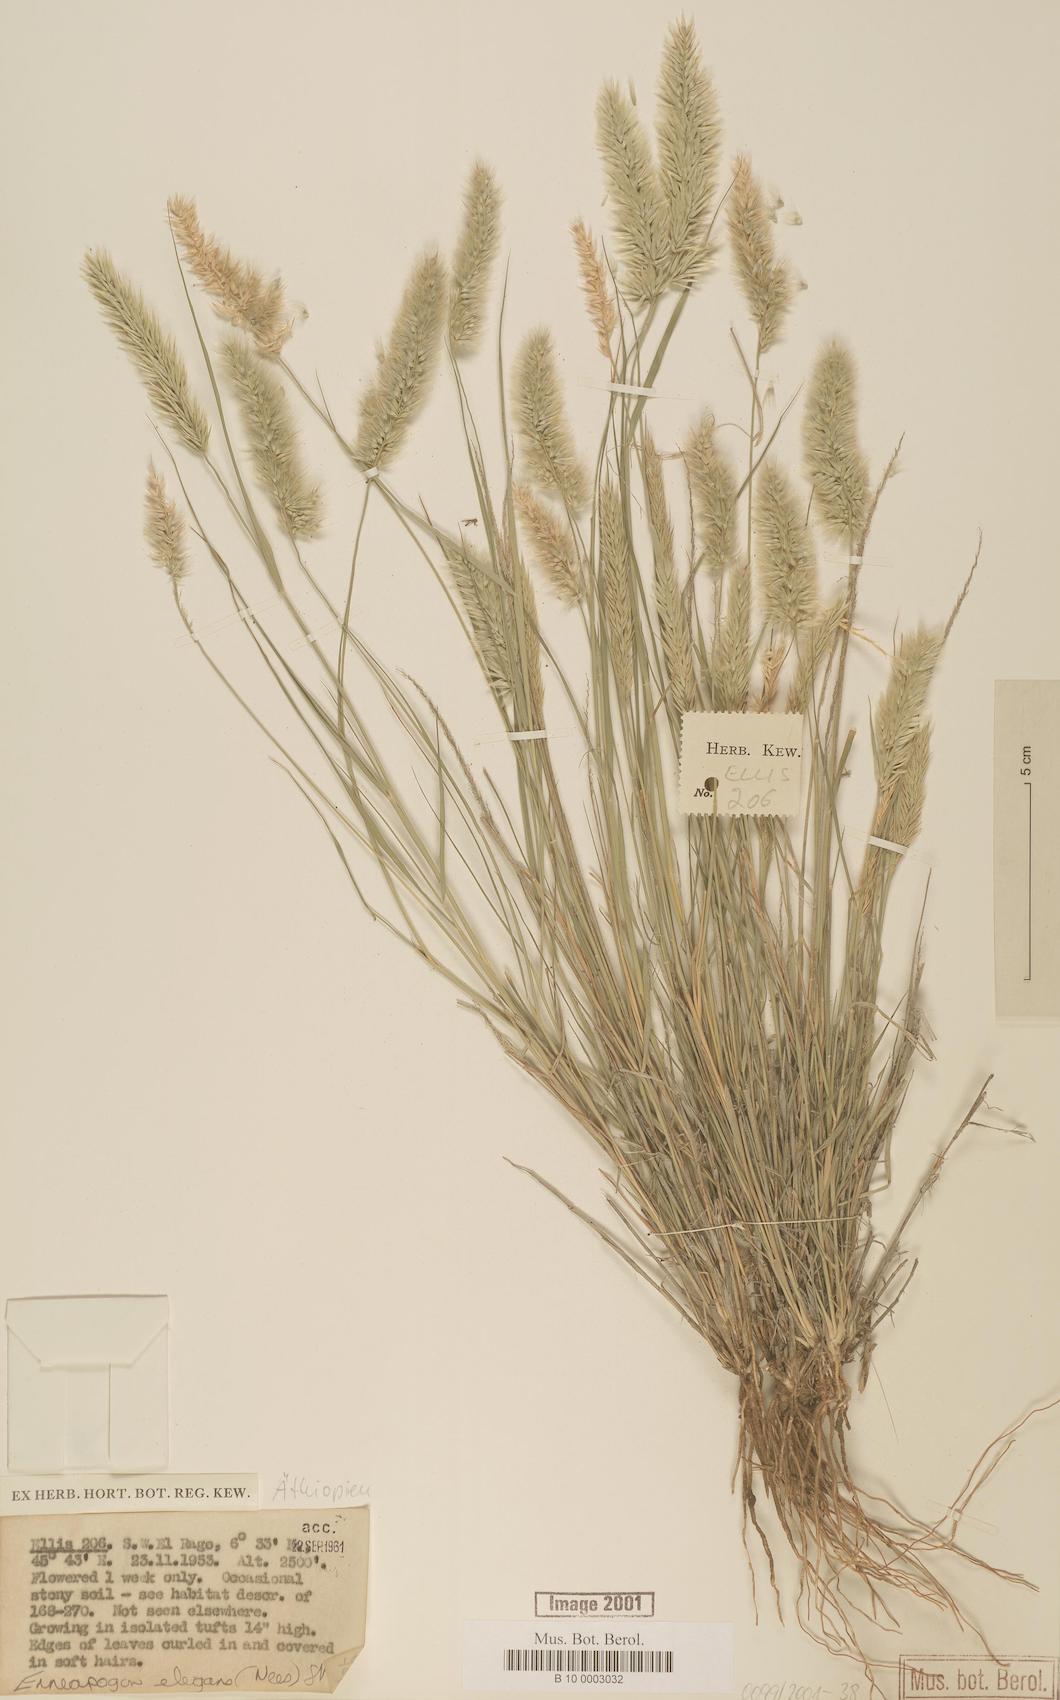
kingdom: Plantae
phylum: Tracheophyta
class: Liliopsida
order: Poales
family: Poaceae
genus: Enneapogon
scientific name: Enneapogon persicus
